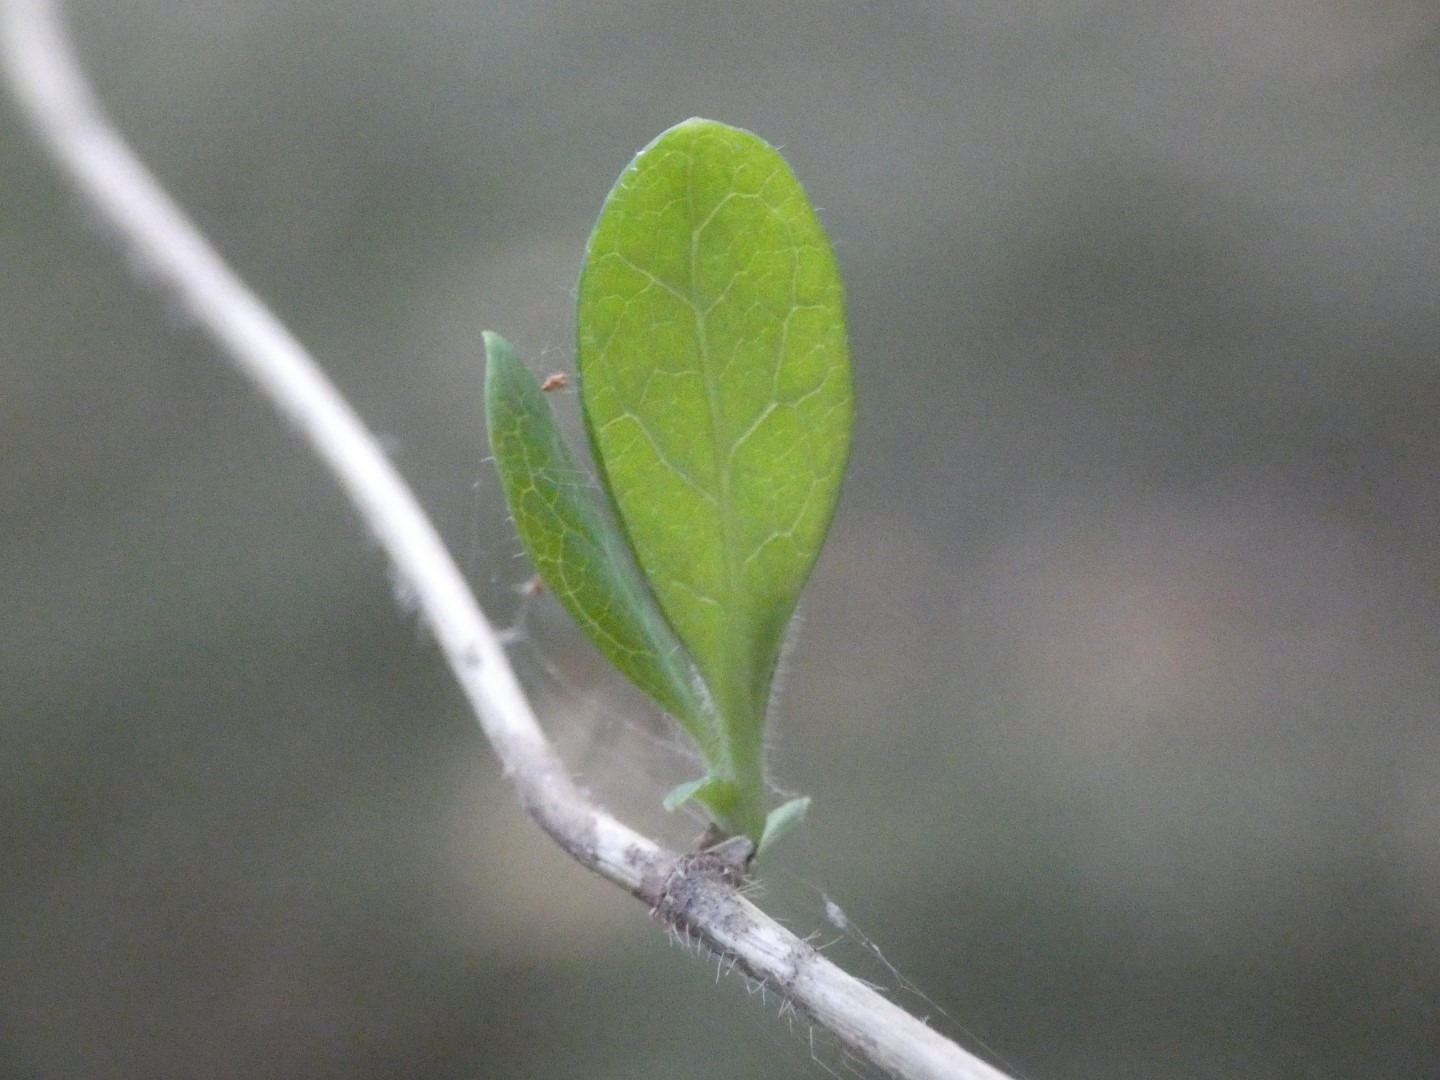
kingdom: Plantae
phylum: Tracheophyta
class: Magnoliopsida
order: Dipsacales
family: Caprifoliaceae
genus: Lonicera
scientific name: Lonicera periclymenum
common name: Almindelig gedeblad
